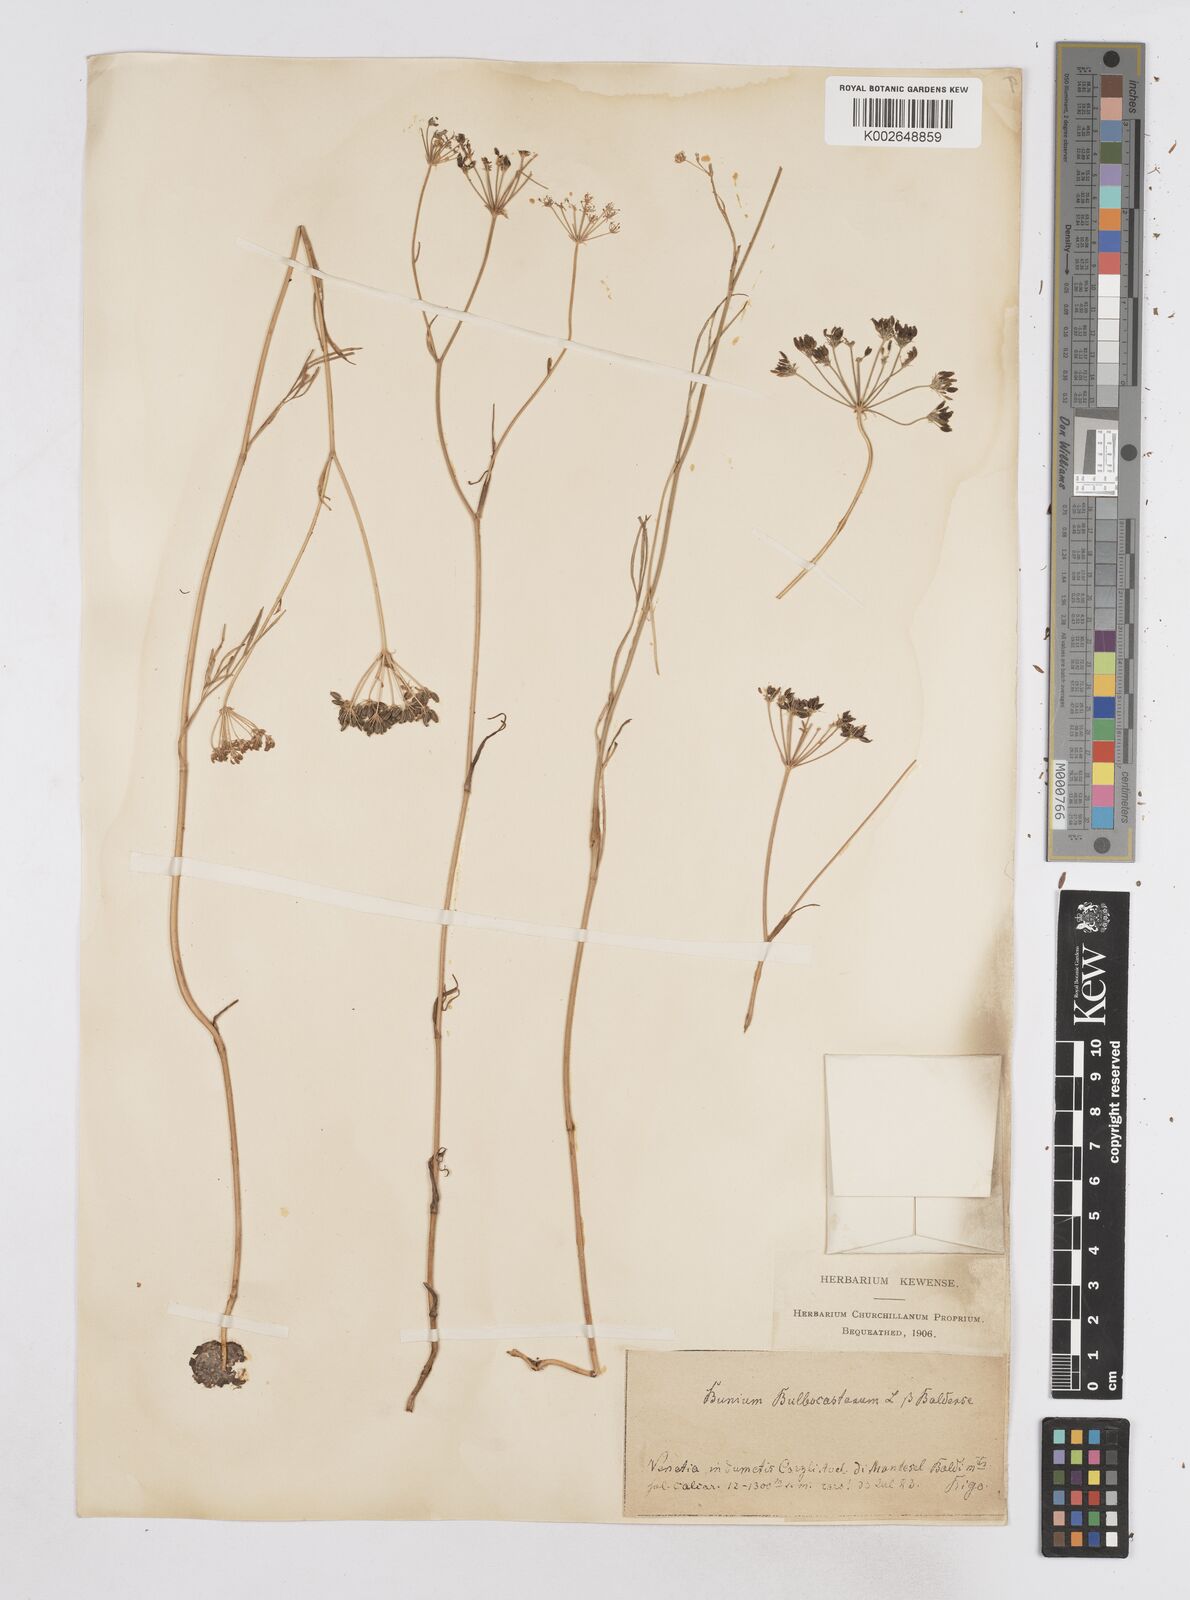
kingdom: Plantae
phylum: Tracheophyta
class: Magnoliopsida
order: Apiales
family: Apiaceae
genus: Bunium
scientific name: Bunium bulbocastanum
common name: Great pignut
